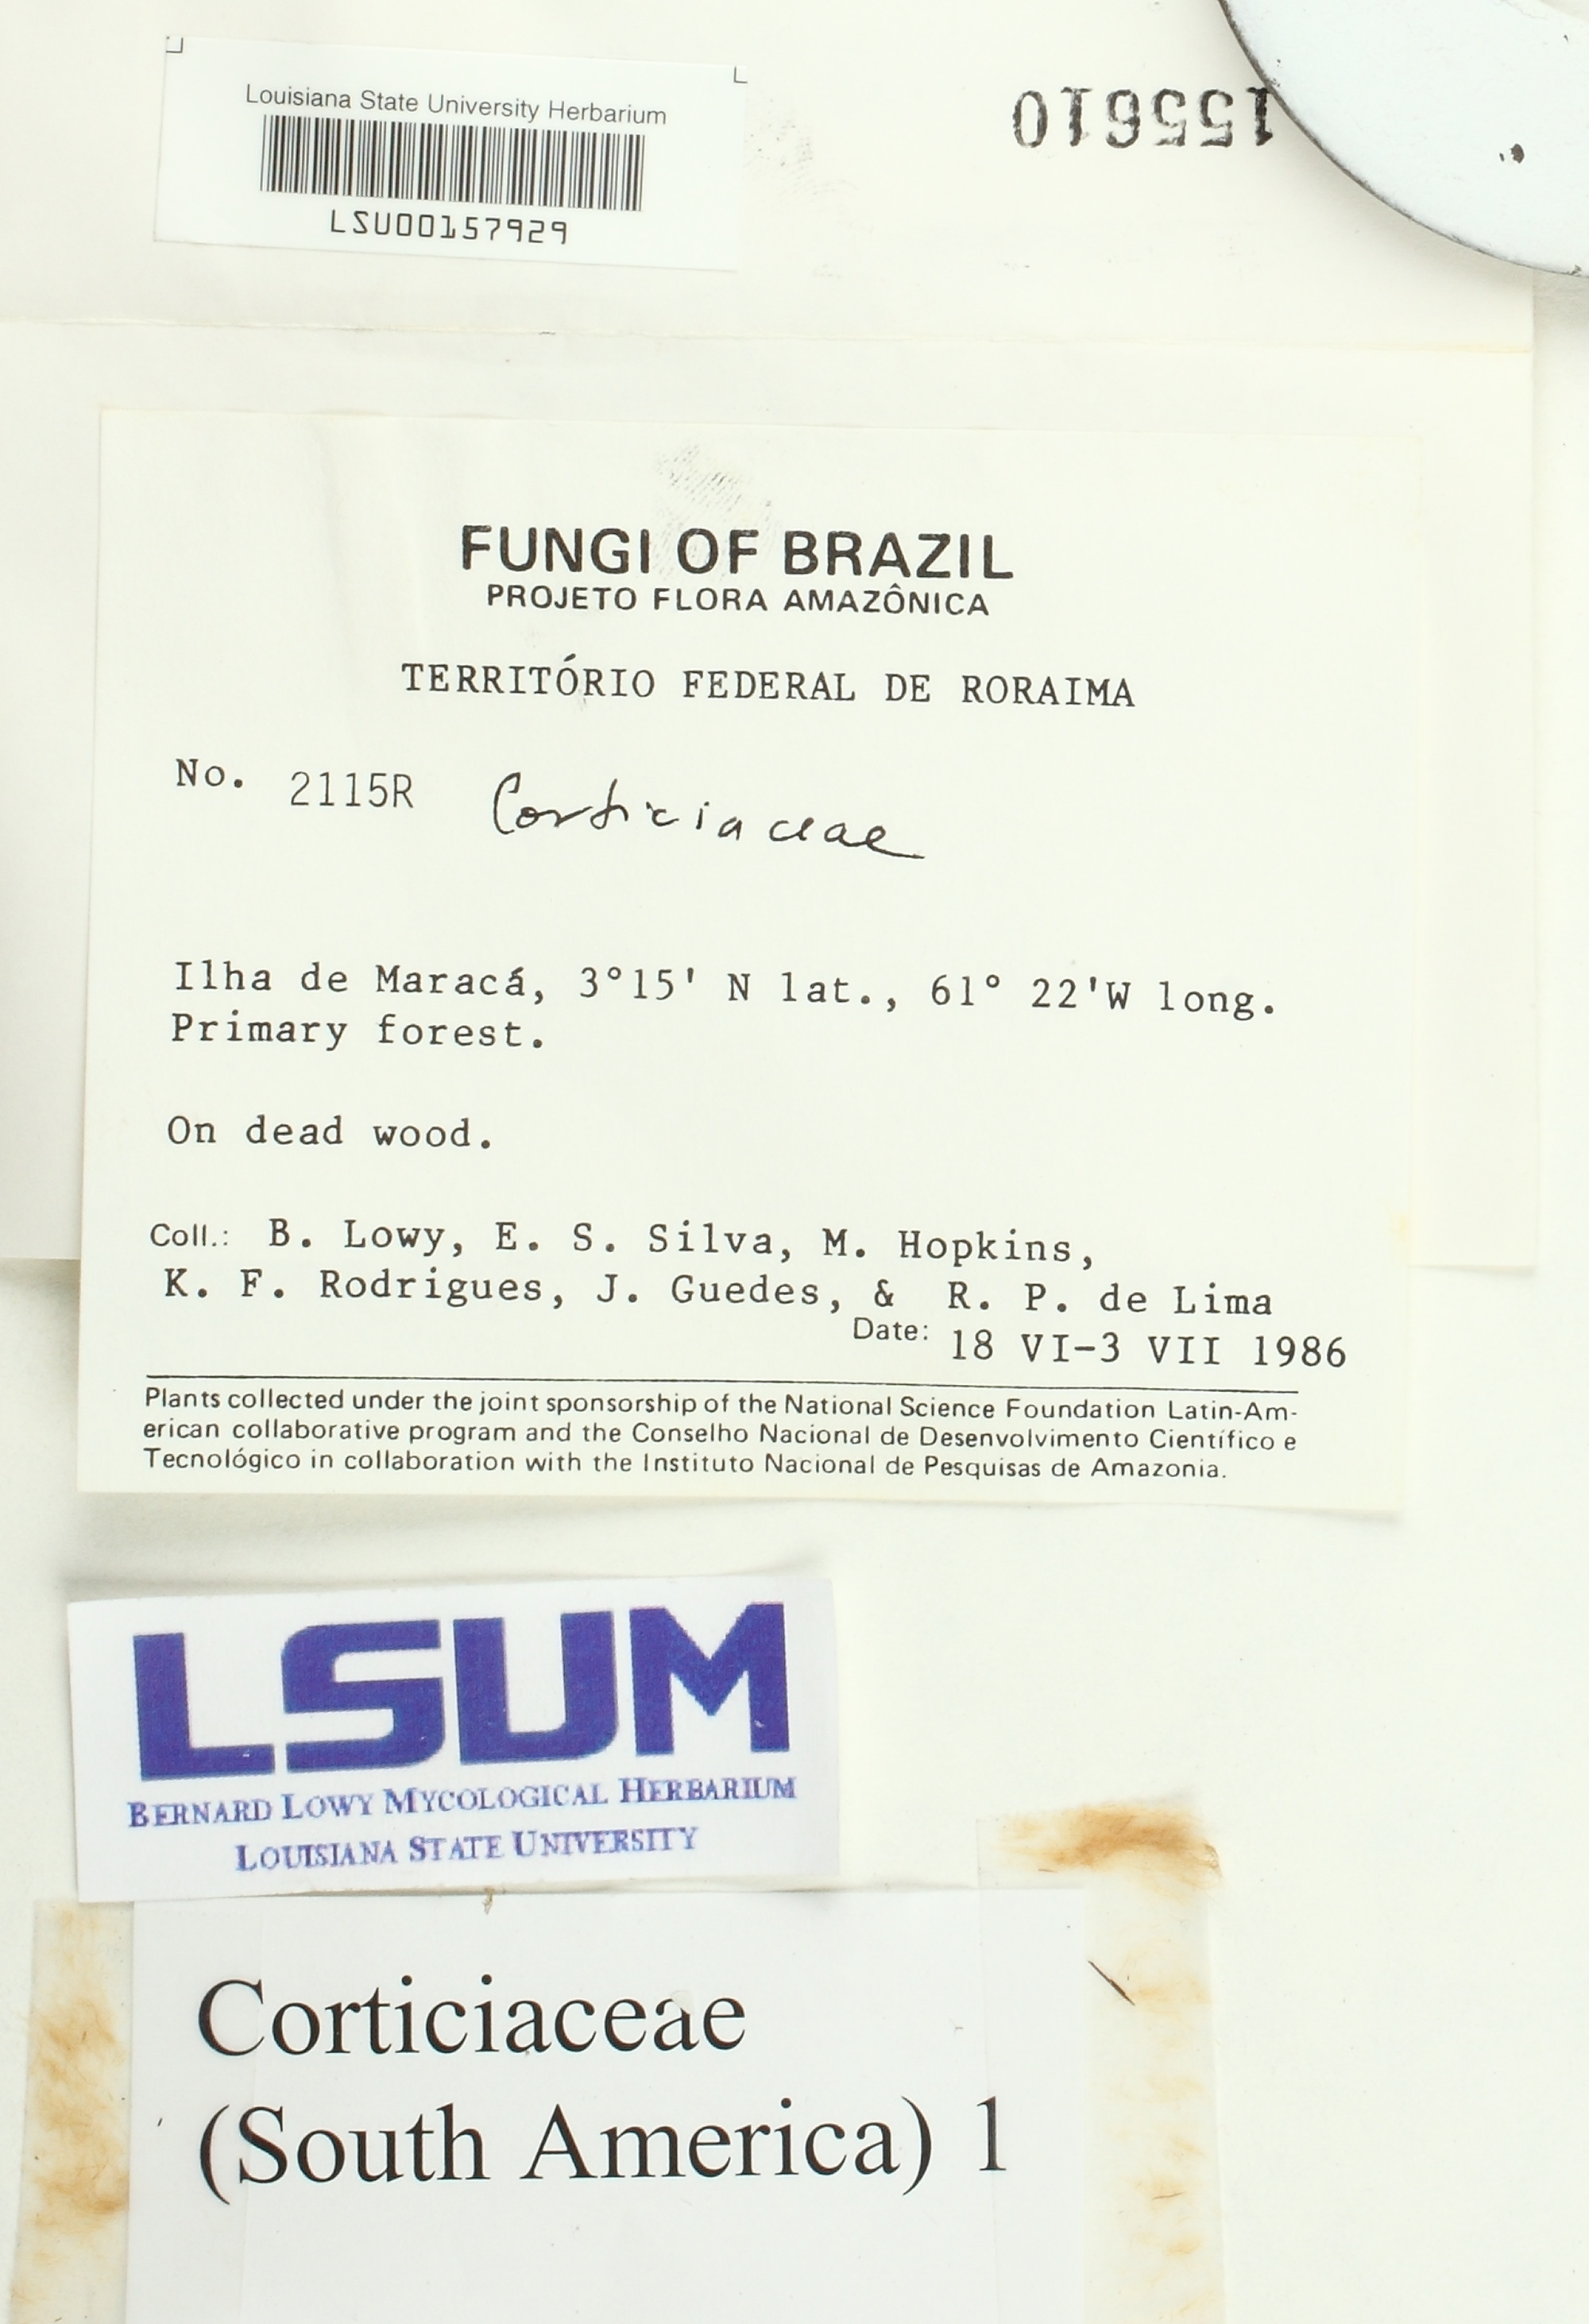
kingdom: Fungi
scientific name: Fungi
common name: Fungi
